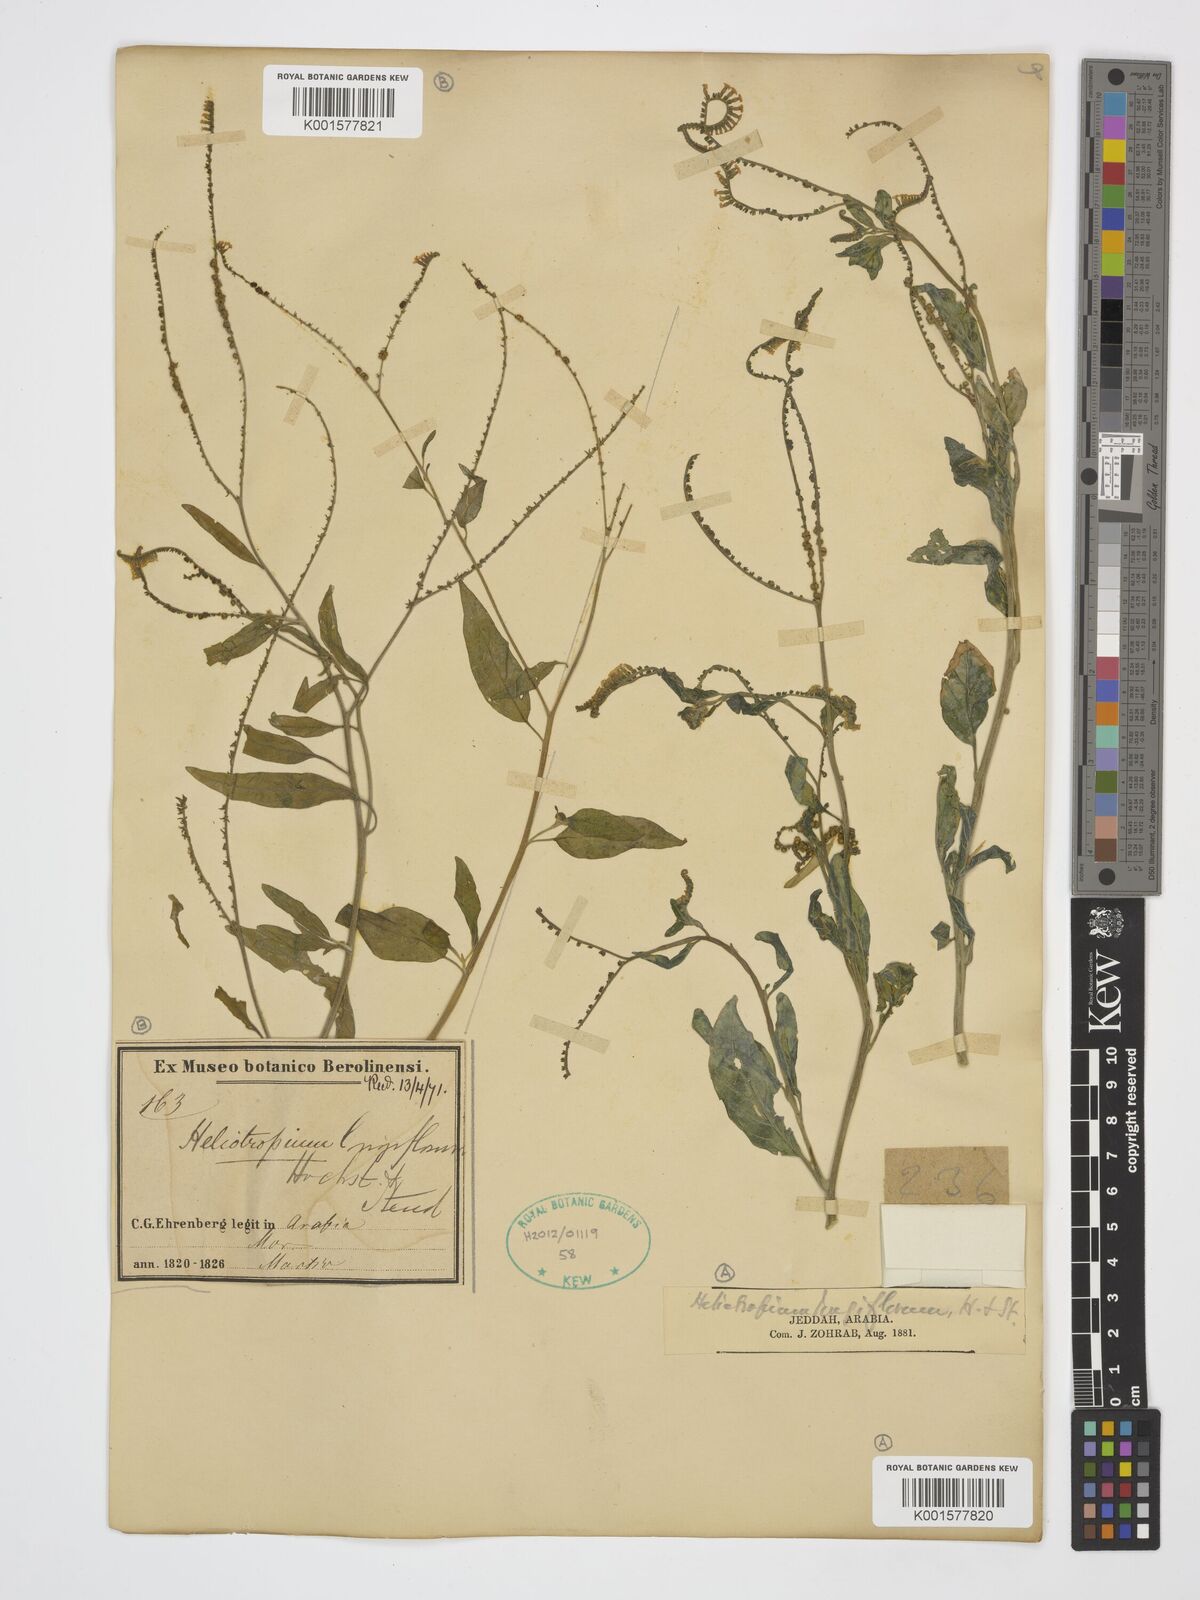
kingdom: Plantae
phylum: Tracheophyta
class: Magnoliopsida
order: Boraginales
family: Heliotropiaceae
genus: Heliotropium
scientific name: Heliotropium longiflorum
